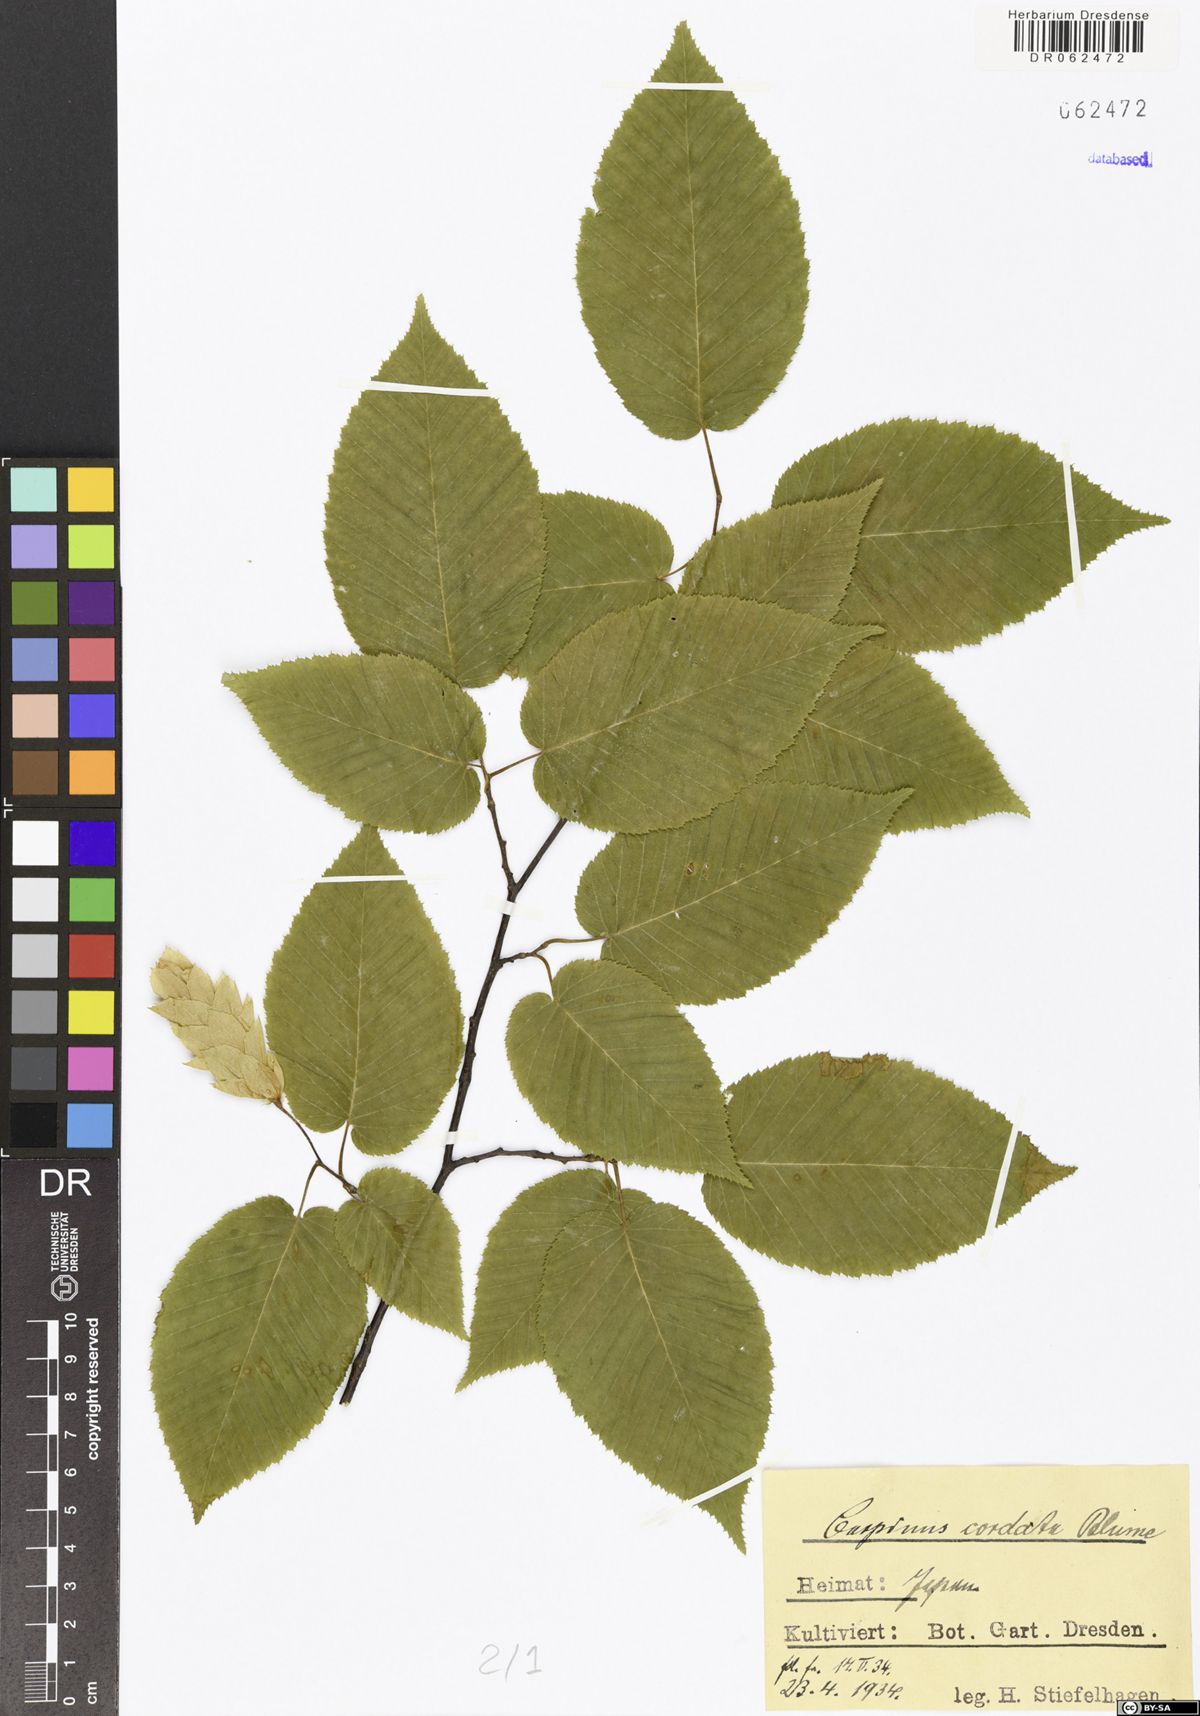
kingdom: Plantae
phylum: Tracheophyta
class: Magnoliopsida
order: Fagales
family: Betulaceae
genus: Carpinus
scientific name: Carpinus cordata
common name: Sawa hornbeam
